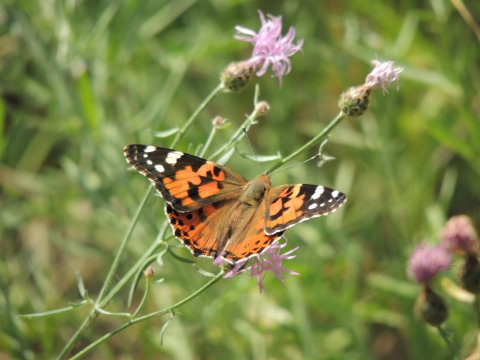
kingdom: Animalia
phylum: Arthropoda
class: Insecta
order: Lepidoptera
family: Nymphalidae
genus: Vanessa
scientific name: Vanessa cardui
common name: Painted Lady
